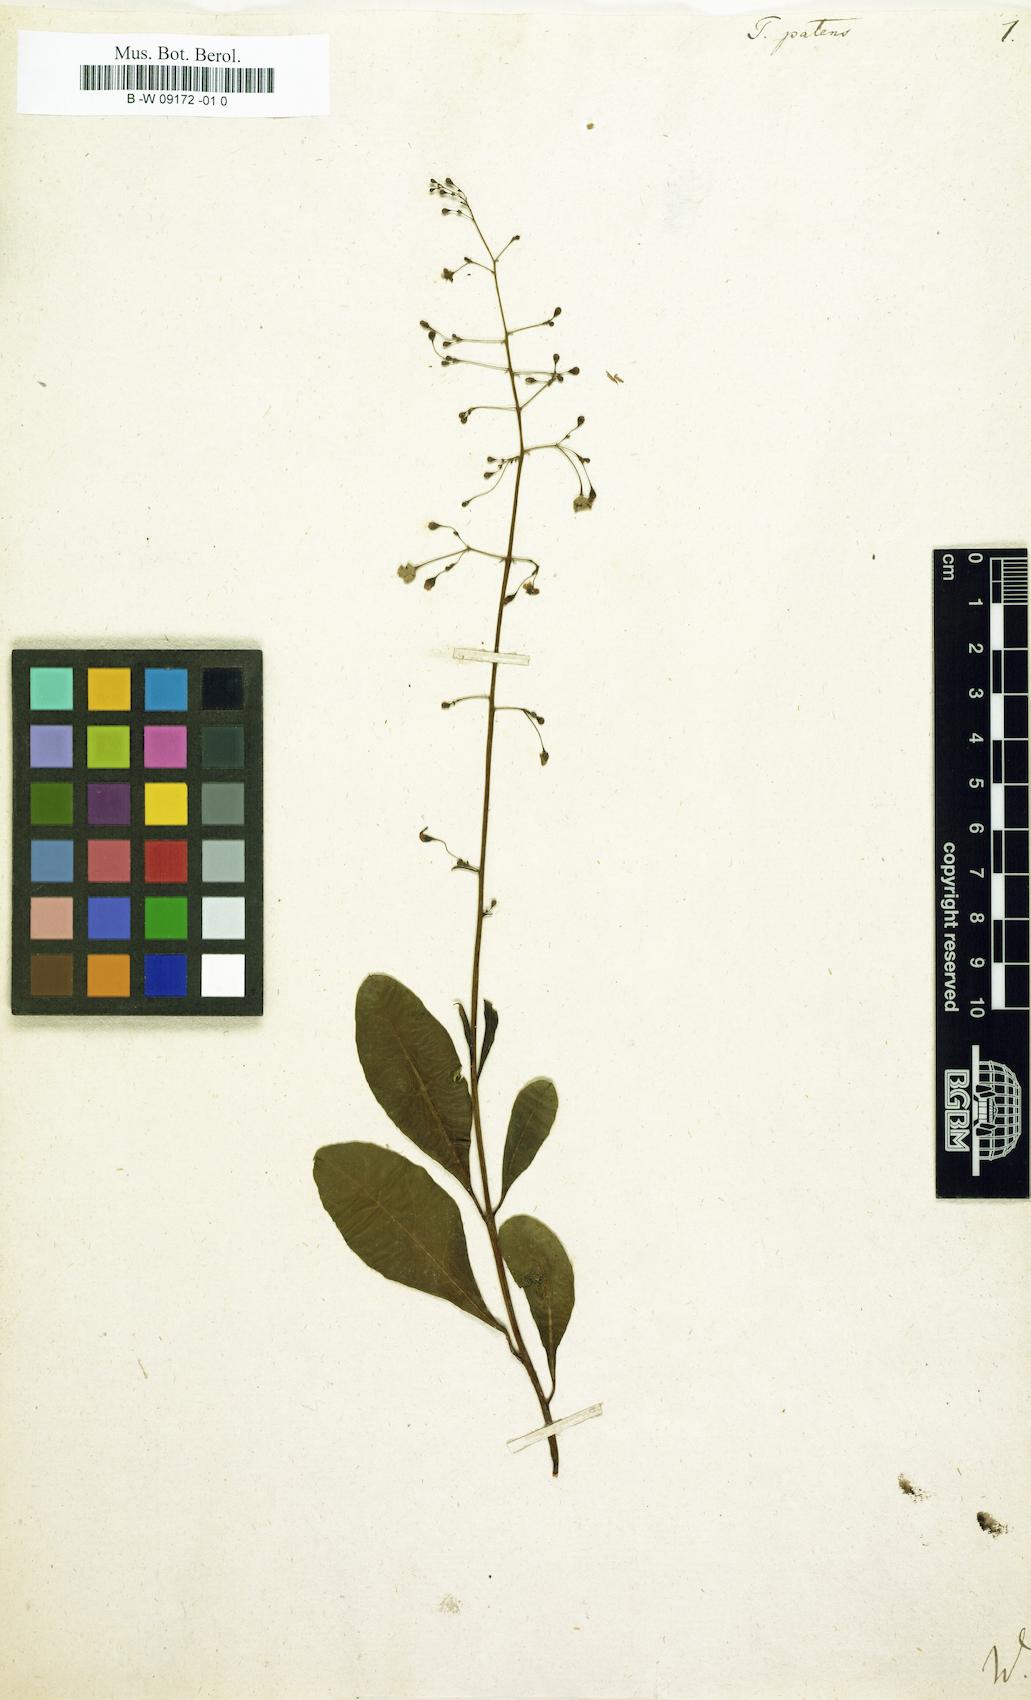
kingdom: Plantae
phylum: Tracheophyta
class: Magnoliopsida
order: Caryophyllales
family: Talinaceae
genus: Talinum
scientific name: Talinum paniculatum
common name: Jewels of opar
